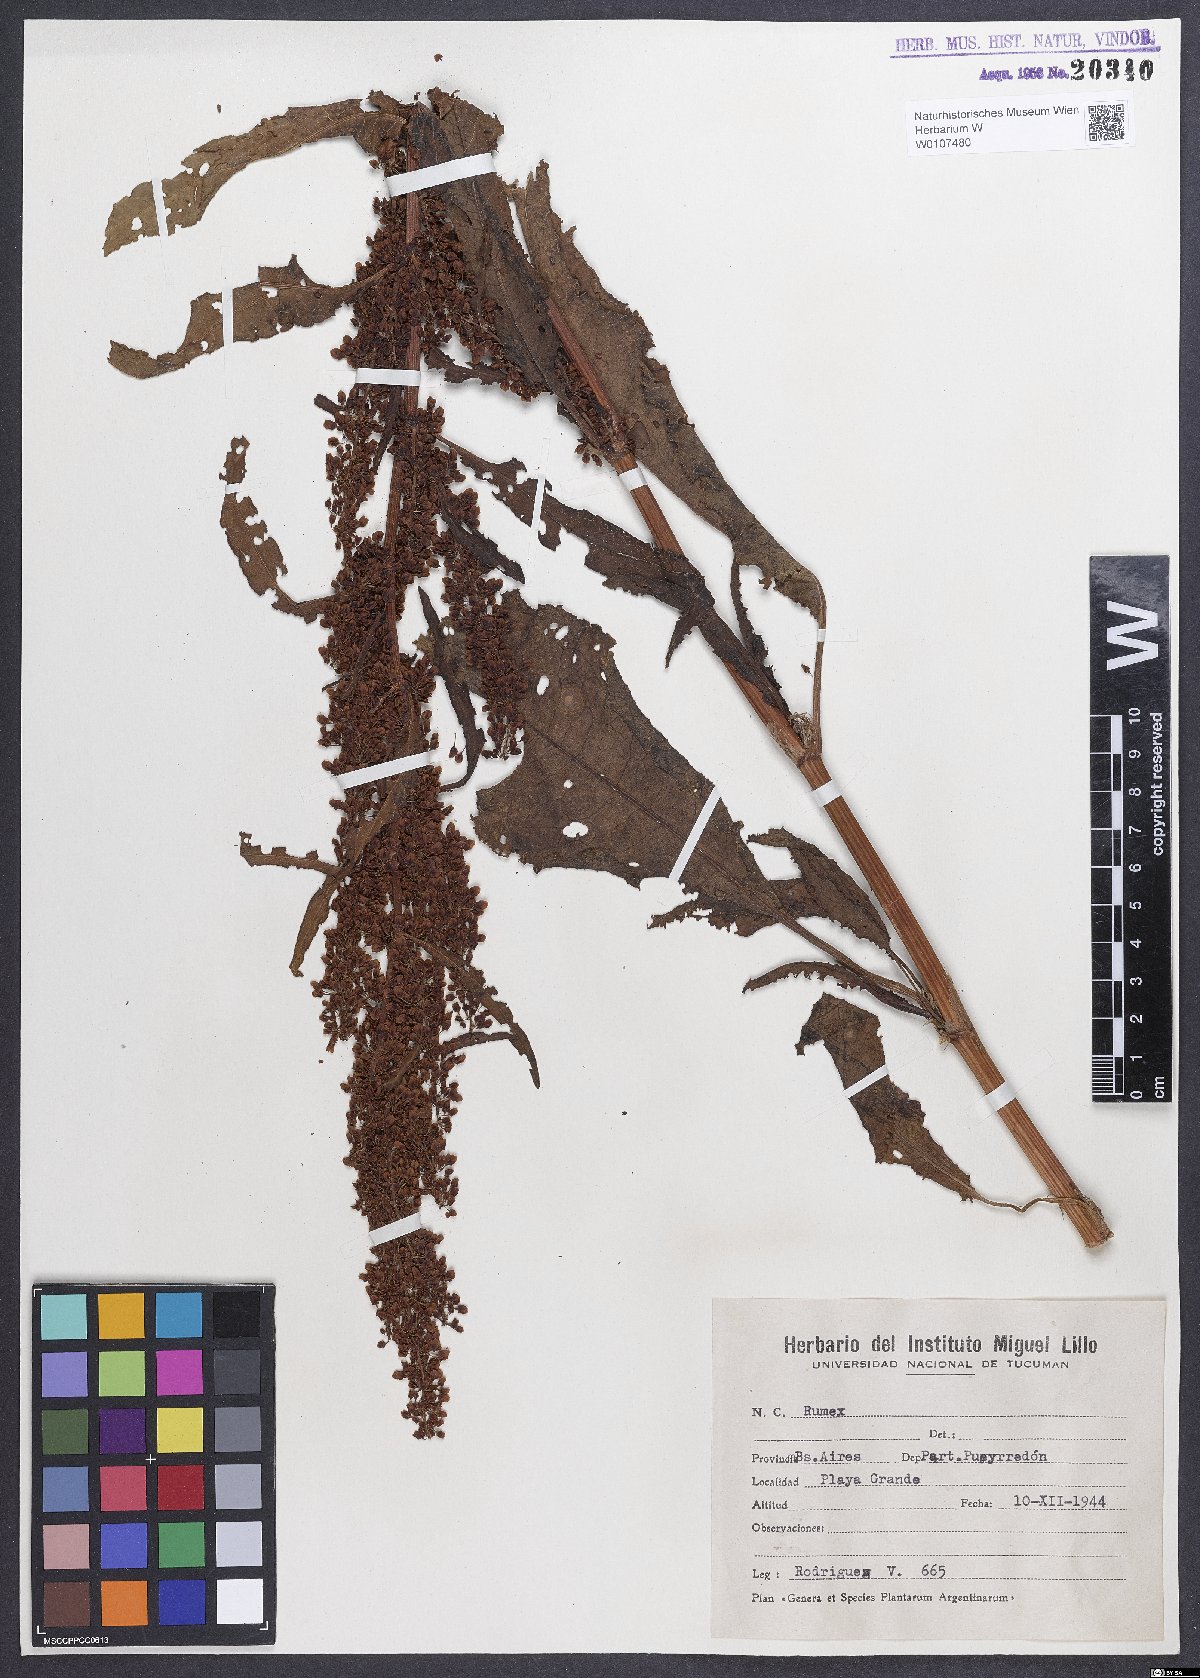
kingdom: Plantae
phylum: Tracheophyta
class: Magnoliopsida
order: Caryophyllales
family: Polygonaceae
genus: Rumex
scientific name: Rumex crispus
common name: Curled dock
